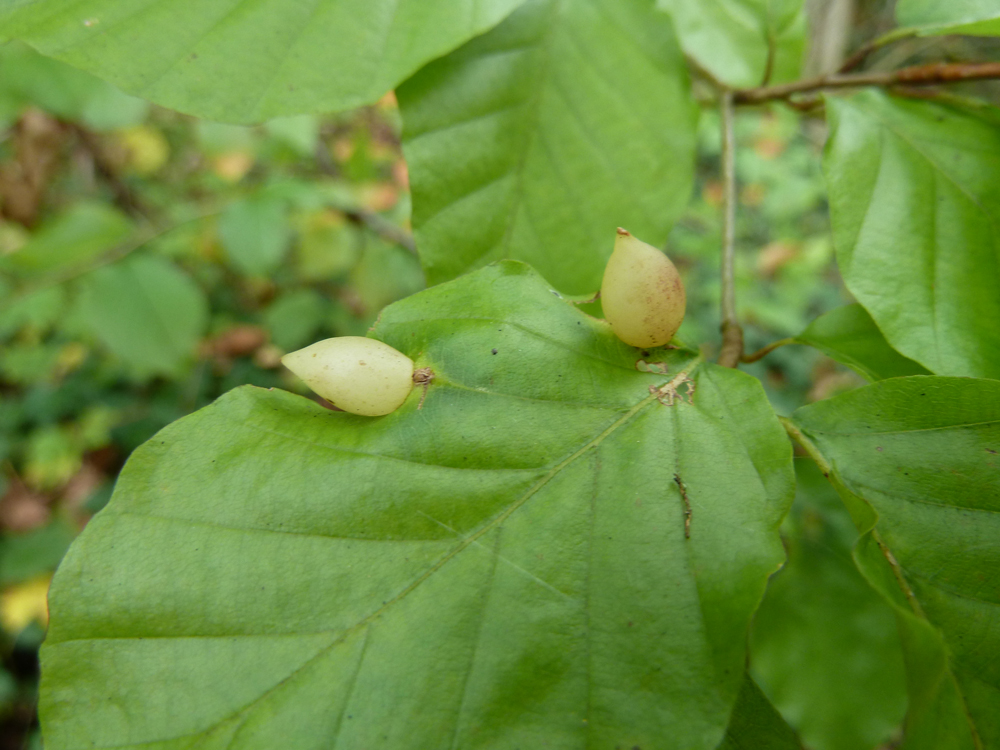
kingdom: Plantae
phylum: Tracheophyta
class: Magnoliopsida
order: Fagales
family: Fagaceae
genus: Fagus
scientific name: Fagus sylvatica
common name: Beech
